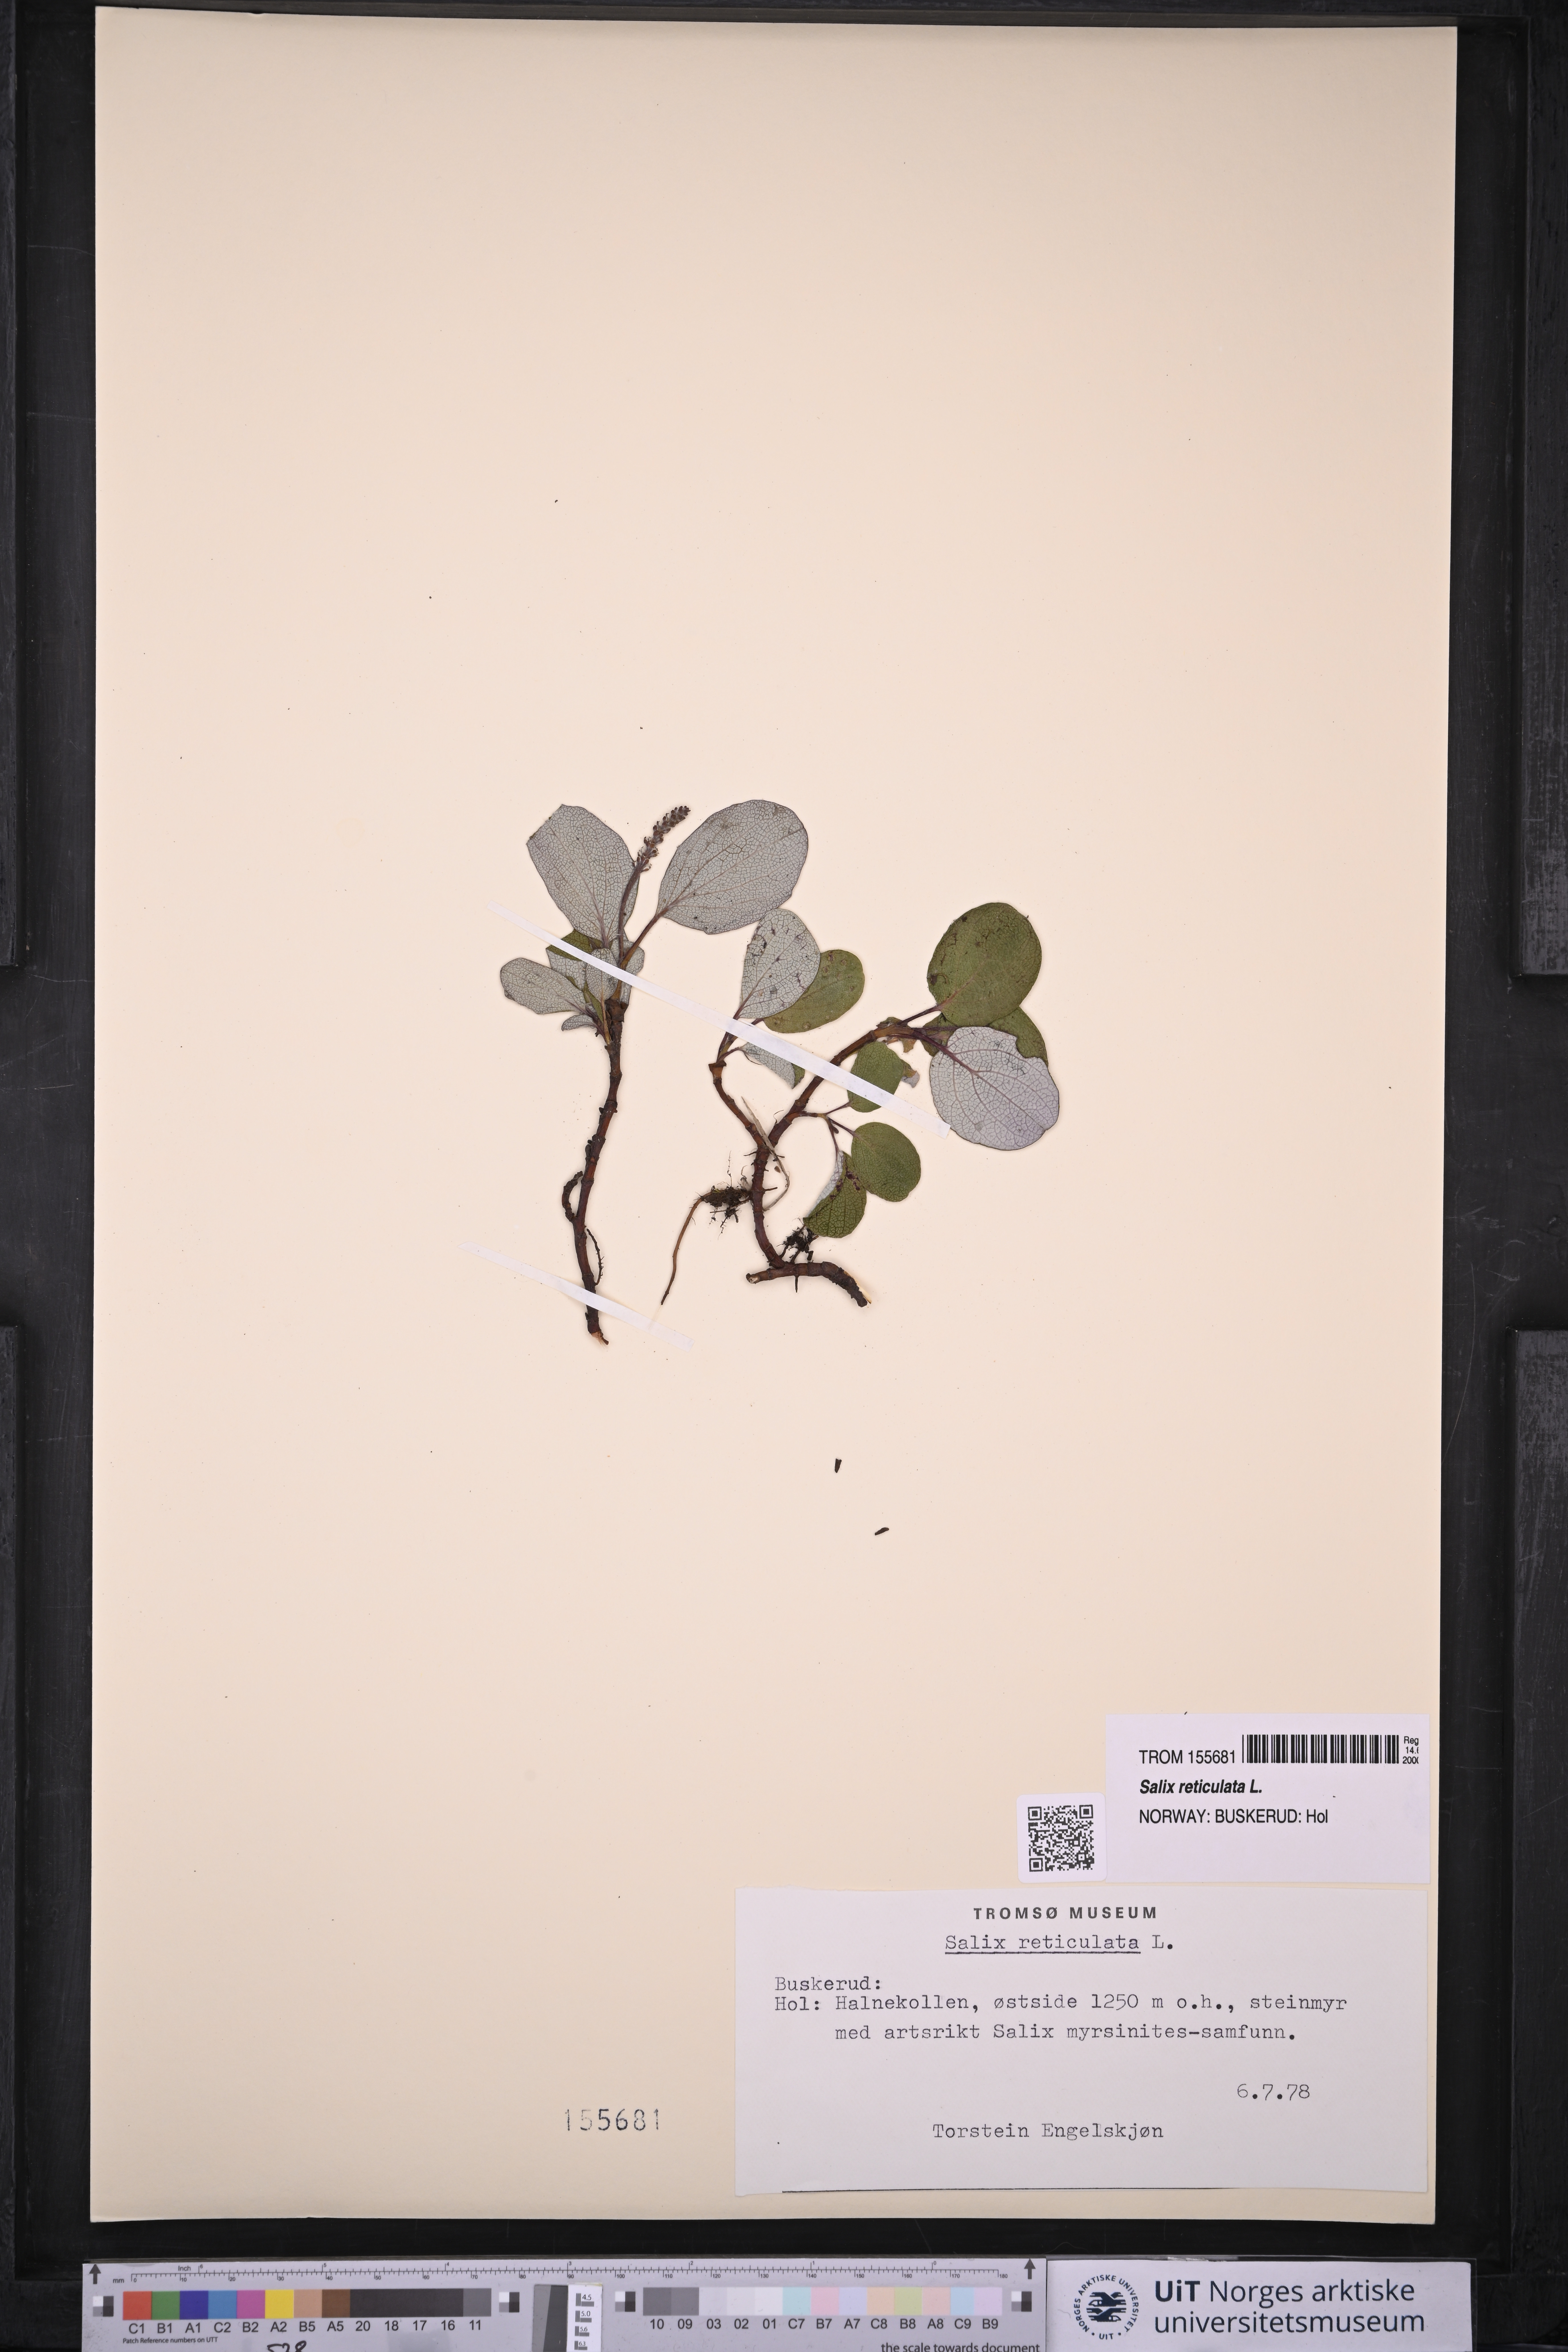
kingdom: Plantae
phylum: Tracheophyta
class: Magnoliopsida
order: Malpighiales
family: Salicaceae
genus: Salix
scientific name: Salix reticulata
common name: Net-leaved willow
